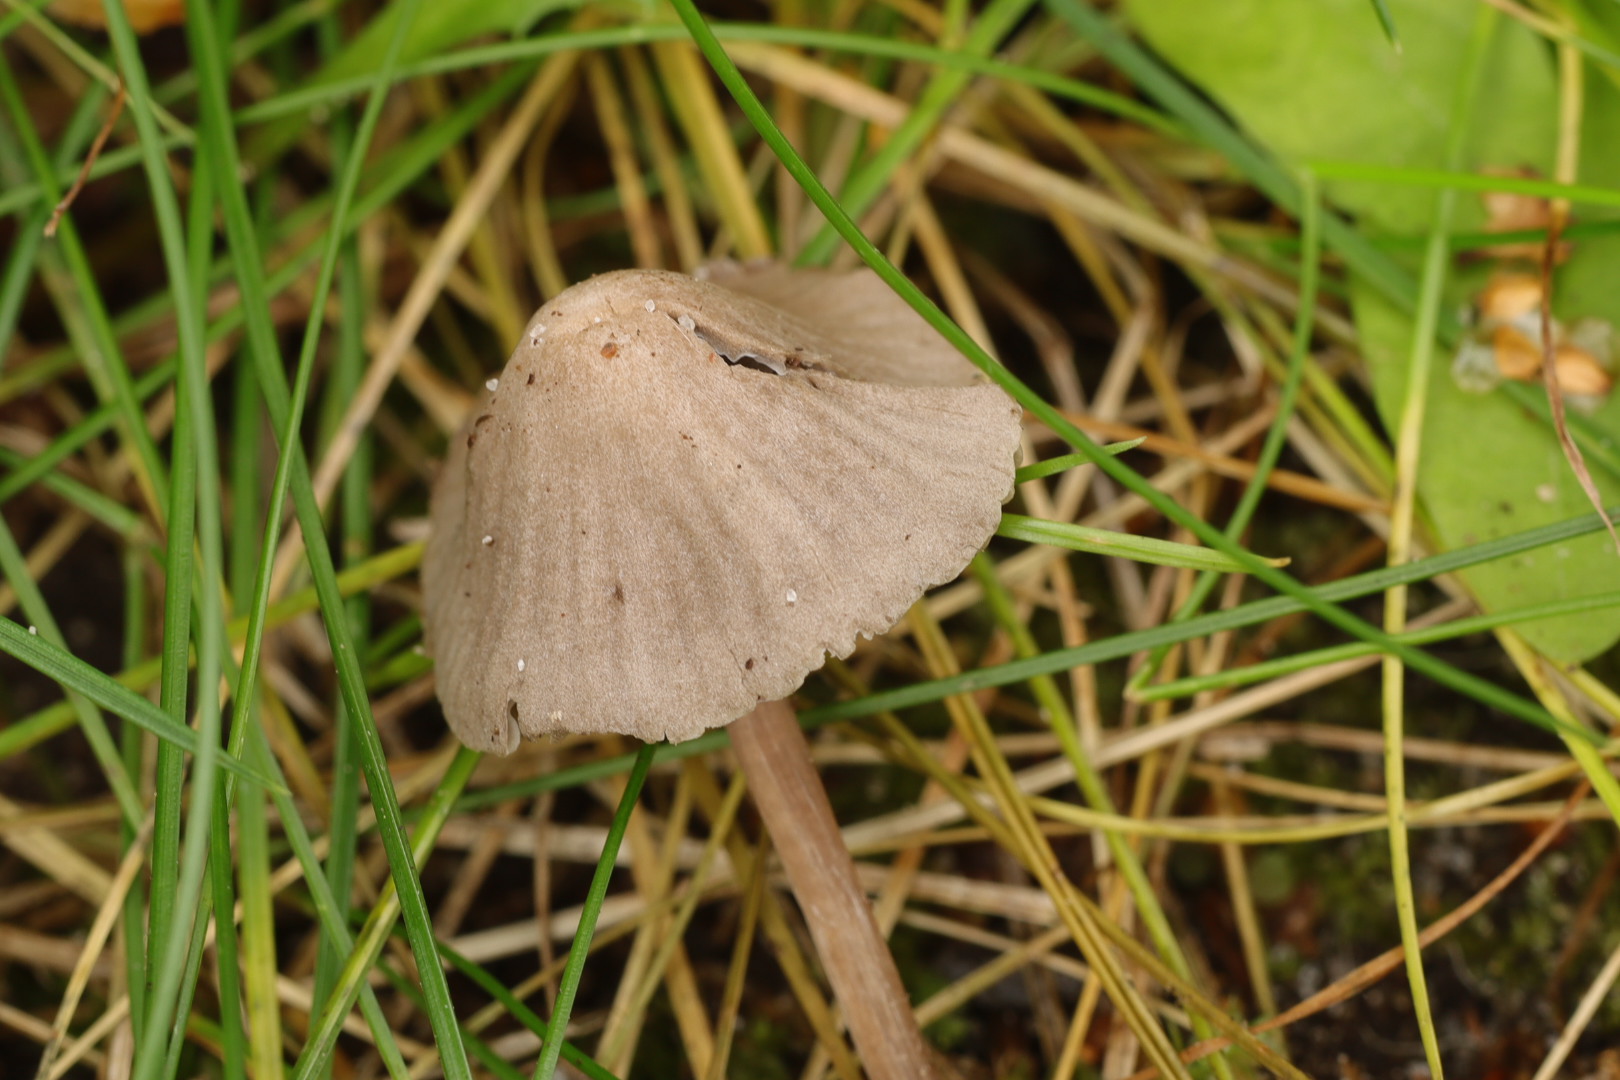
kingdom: Fungi
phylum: Basidiomycota
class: Agaricomycetes
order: Agaricales
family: Mycenaceae
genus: Mycena
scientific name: Mycena leptocephala
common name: klor-huesvamp
